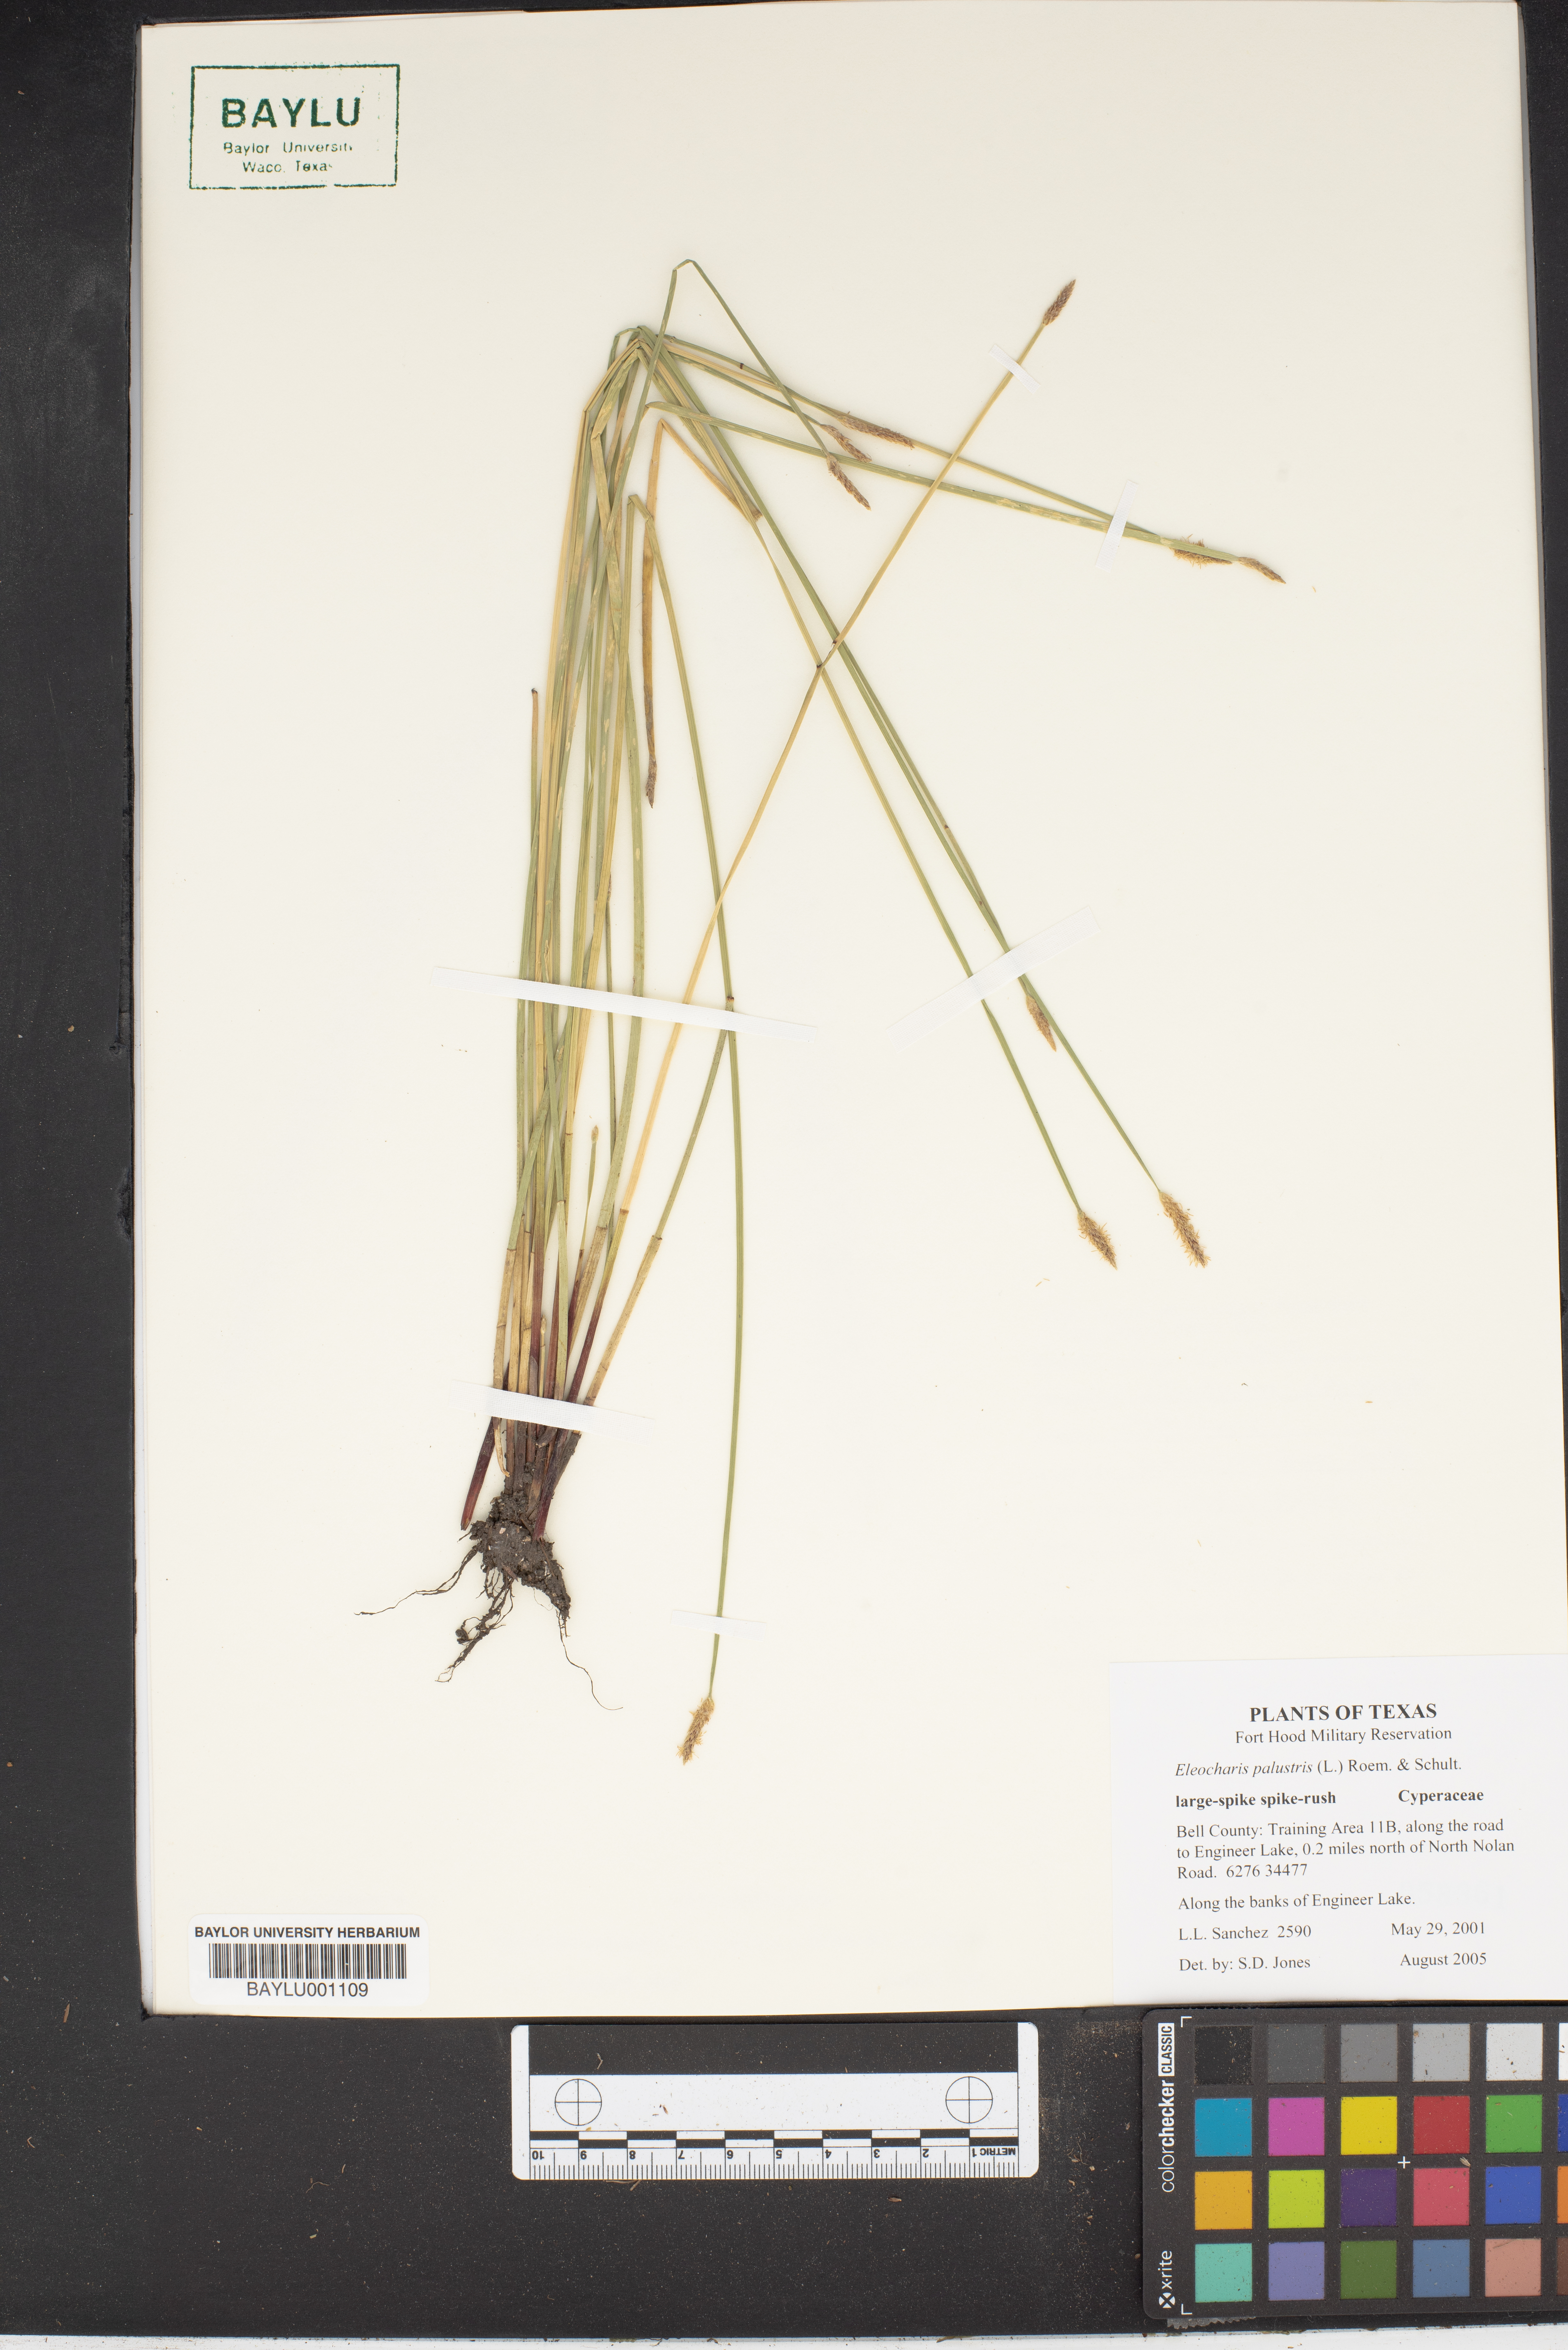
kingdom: Plantae
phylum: Tracheophyta
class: Liliopsida
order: Poales
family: Cyperaceae
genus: Eleocharis
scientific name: Eleocharis palustris
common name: Common spike-rush
